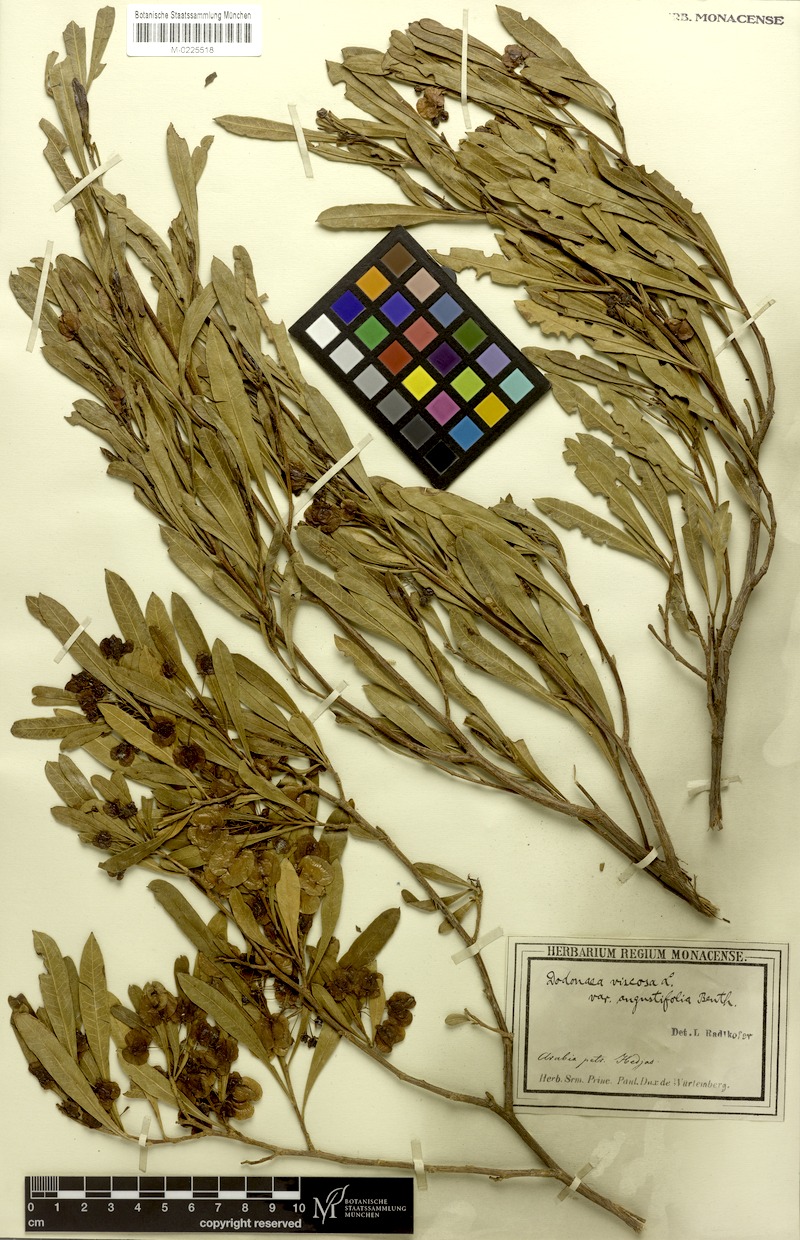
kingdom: Plantae
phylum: Tracheophyta
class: Magnoliopsida
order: Sapindales
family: Sapindaceae
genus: Dodonaea
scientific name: Dodonaea viscosa
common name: Hopbush
